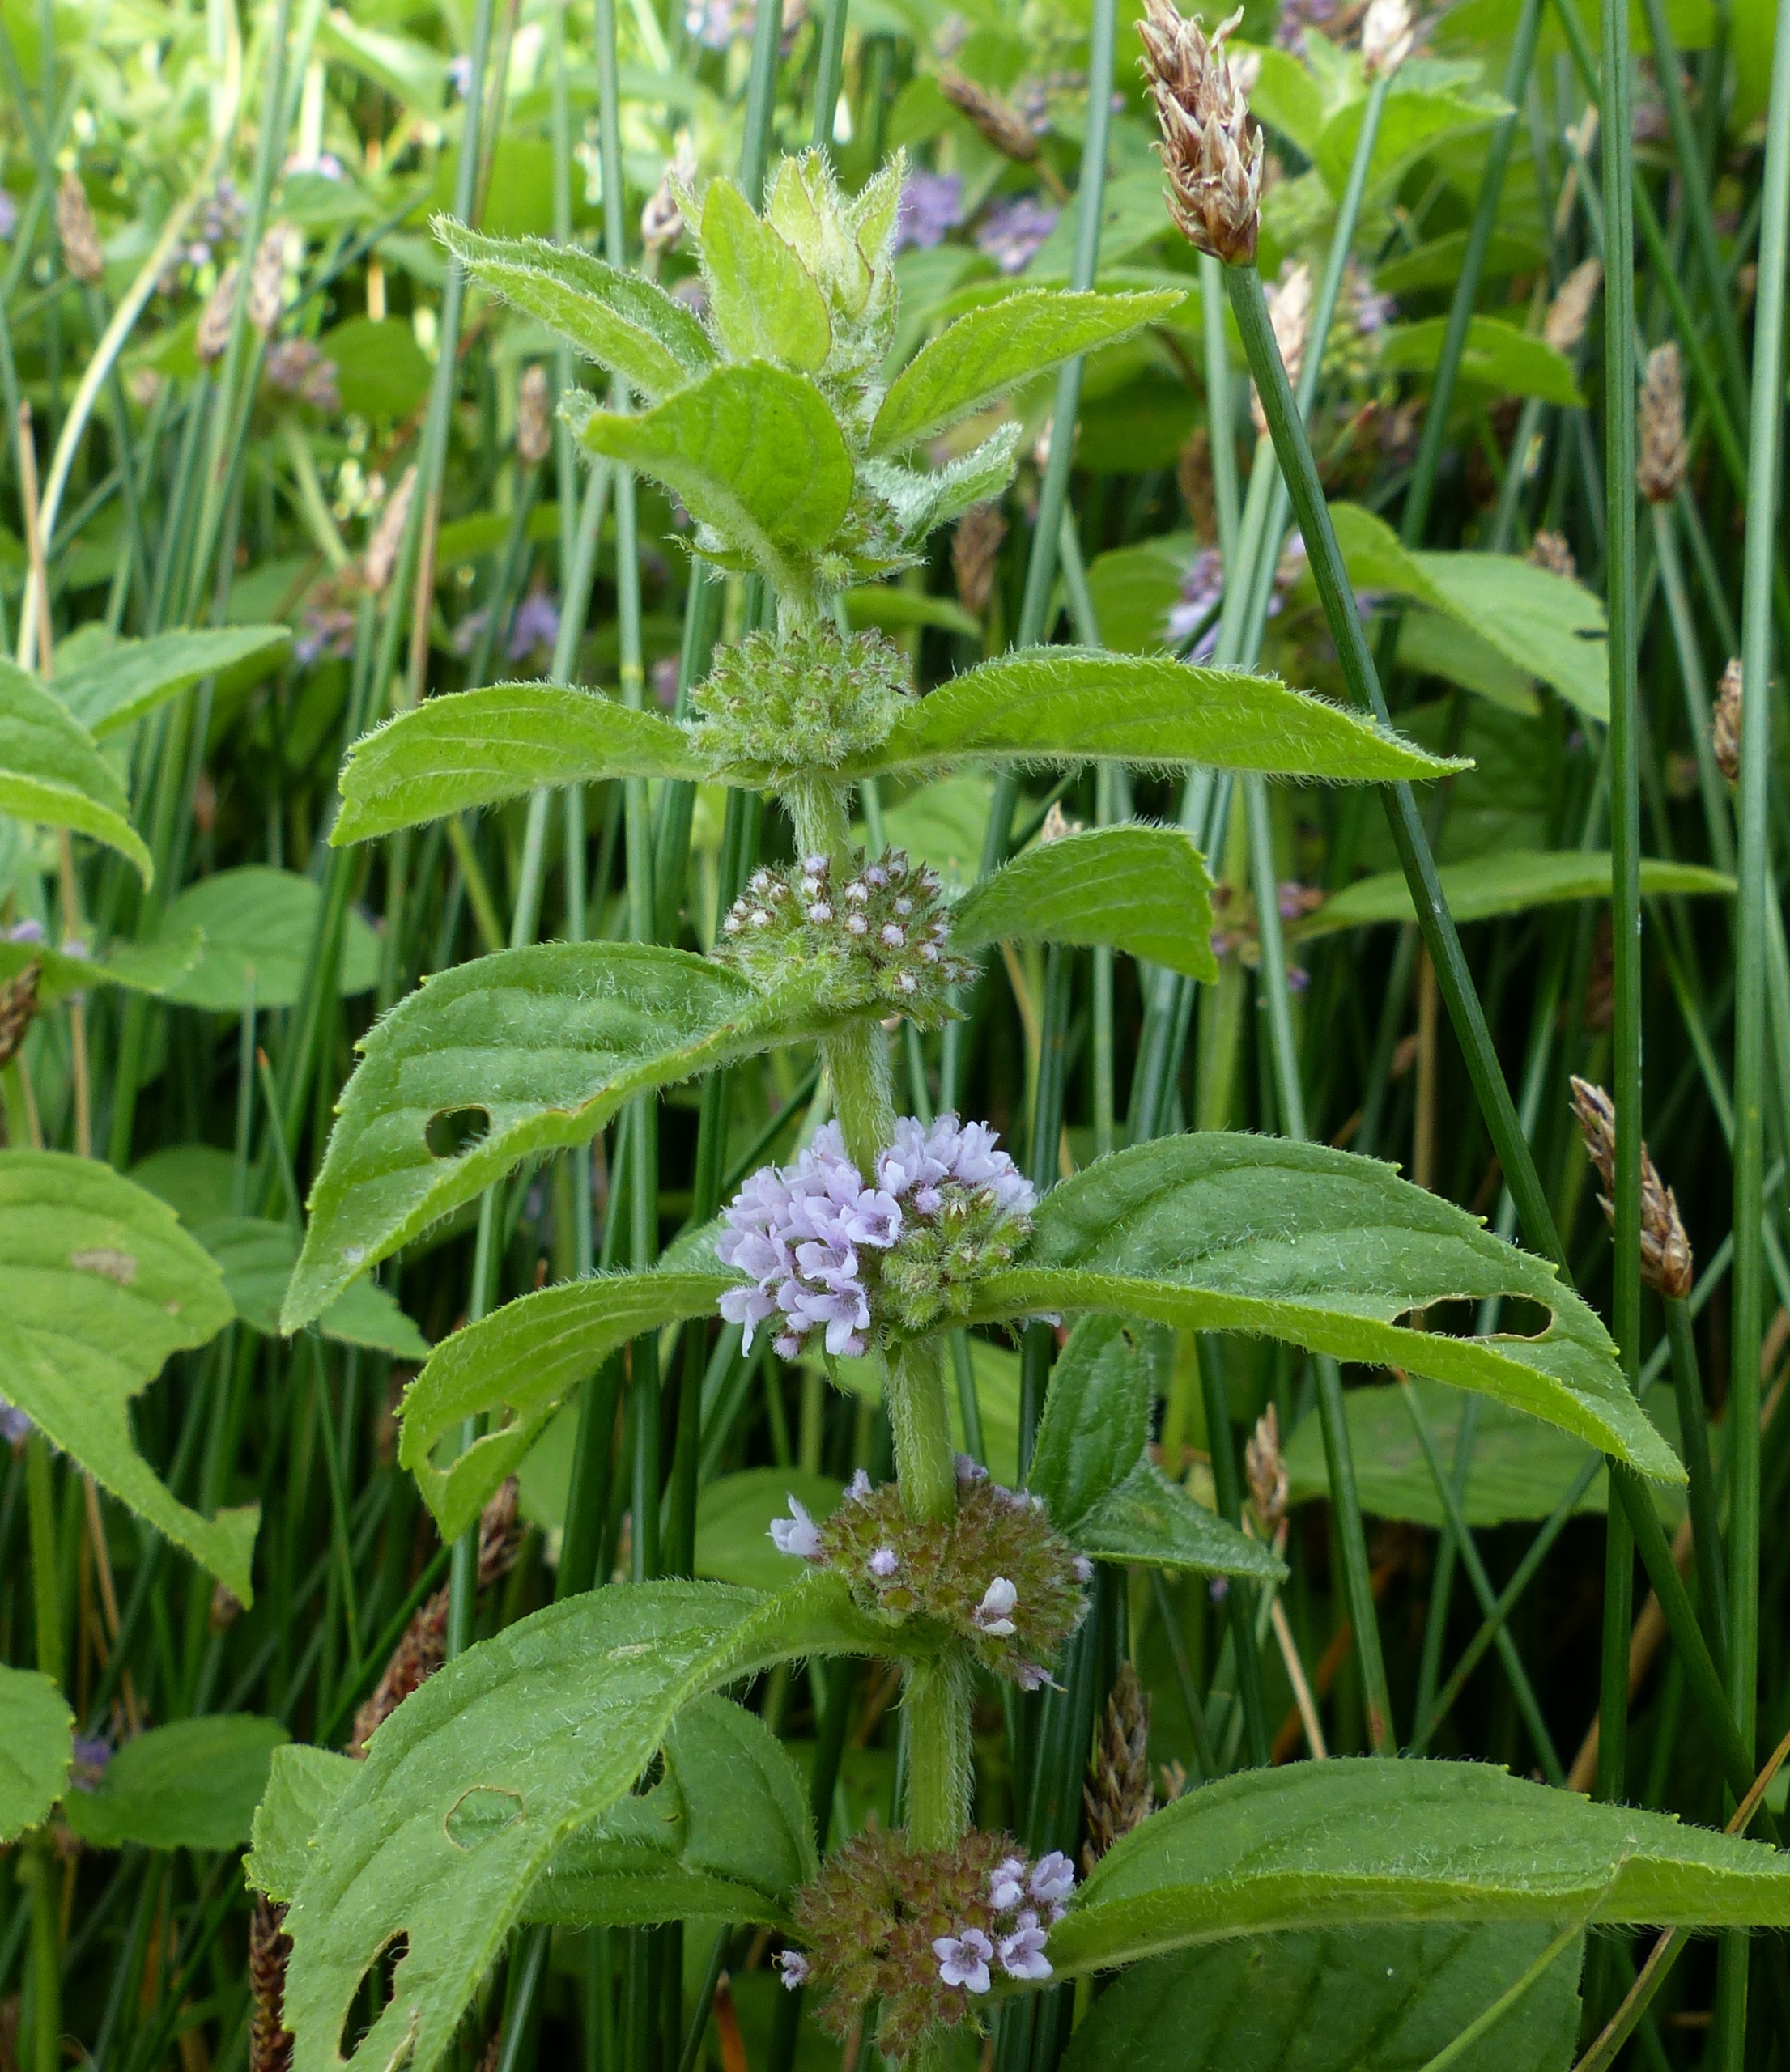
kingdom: Plantae
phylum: Tracheophyta
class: Magnoliopsida
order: Lamiales
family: Lamiaceae
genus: Mentha
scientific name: Mentha arvensis
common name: Ager-mynte
